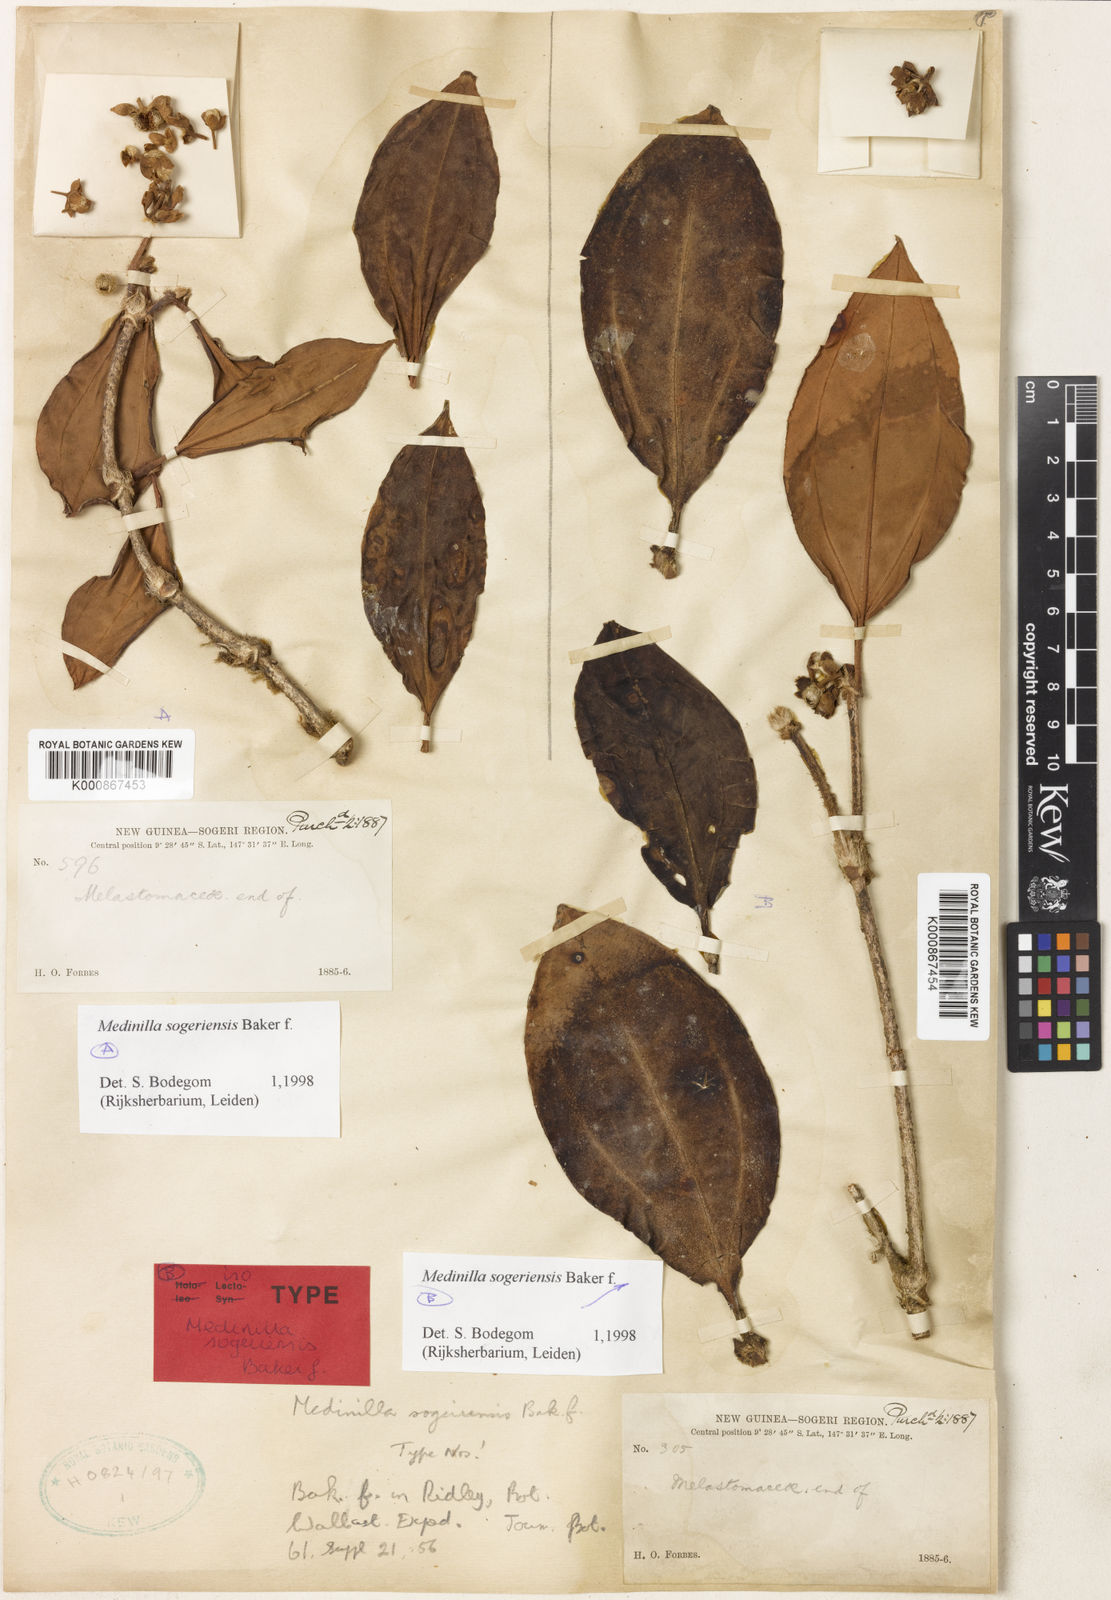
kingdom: Plantae
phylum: Tracheophyta
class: Magnoliopsida
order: Myrtales
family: Melastomataceae
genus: Medinilla
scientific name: Medinilla sogeriensis
